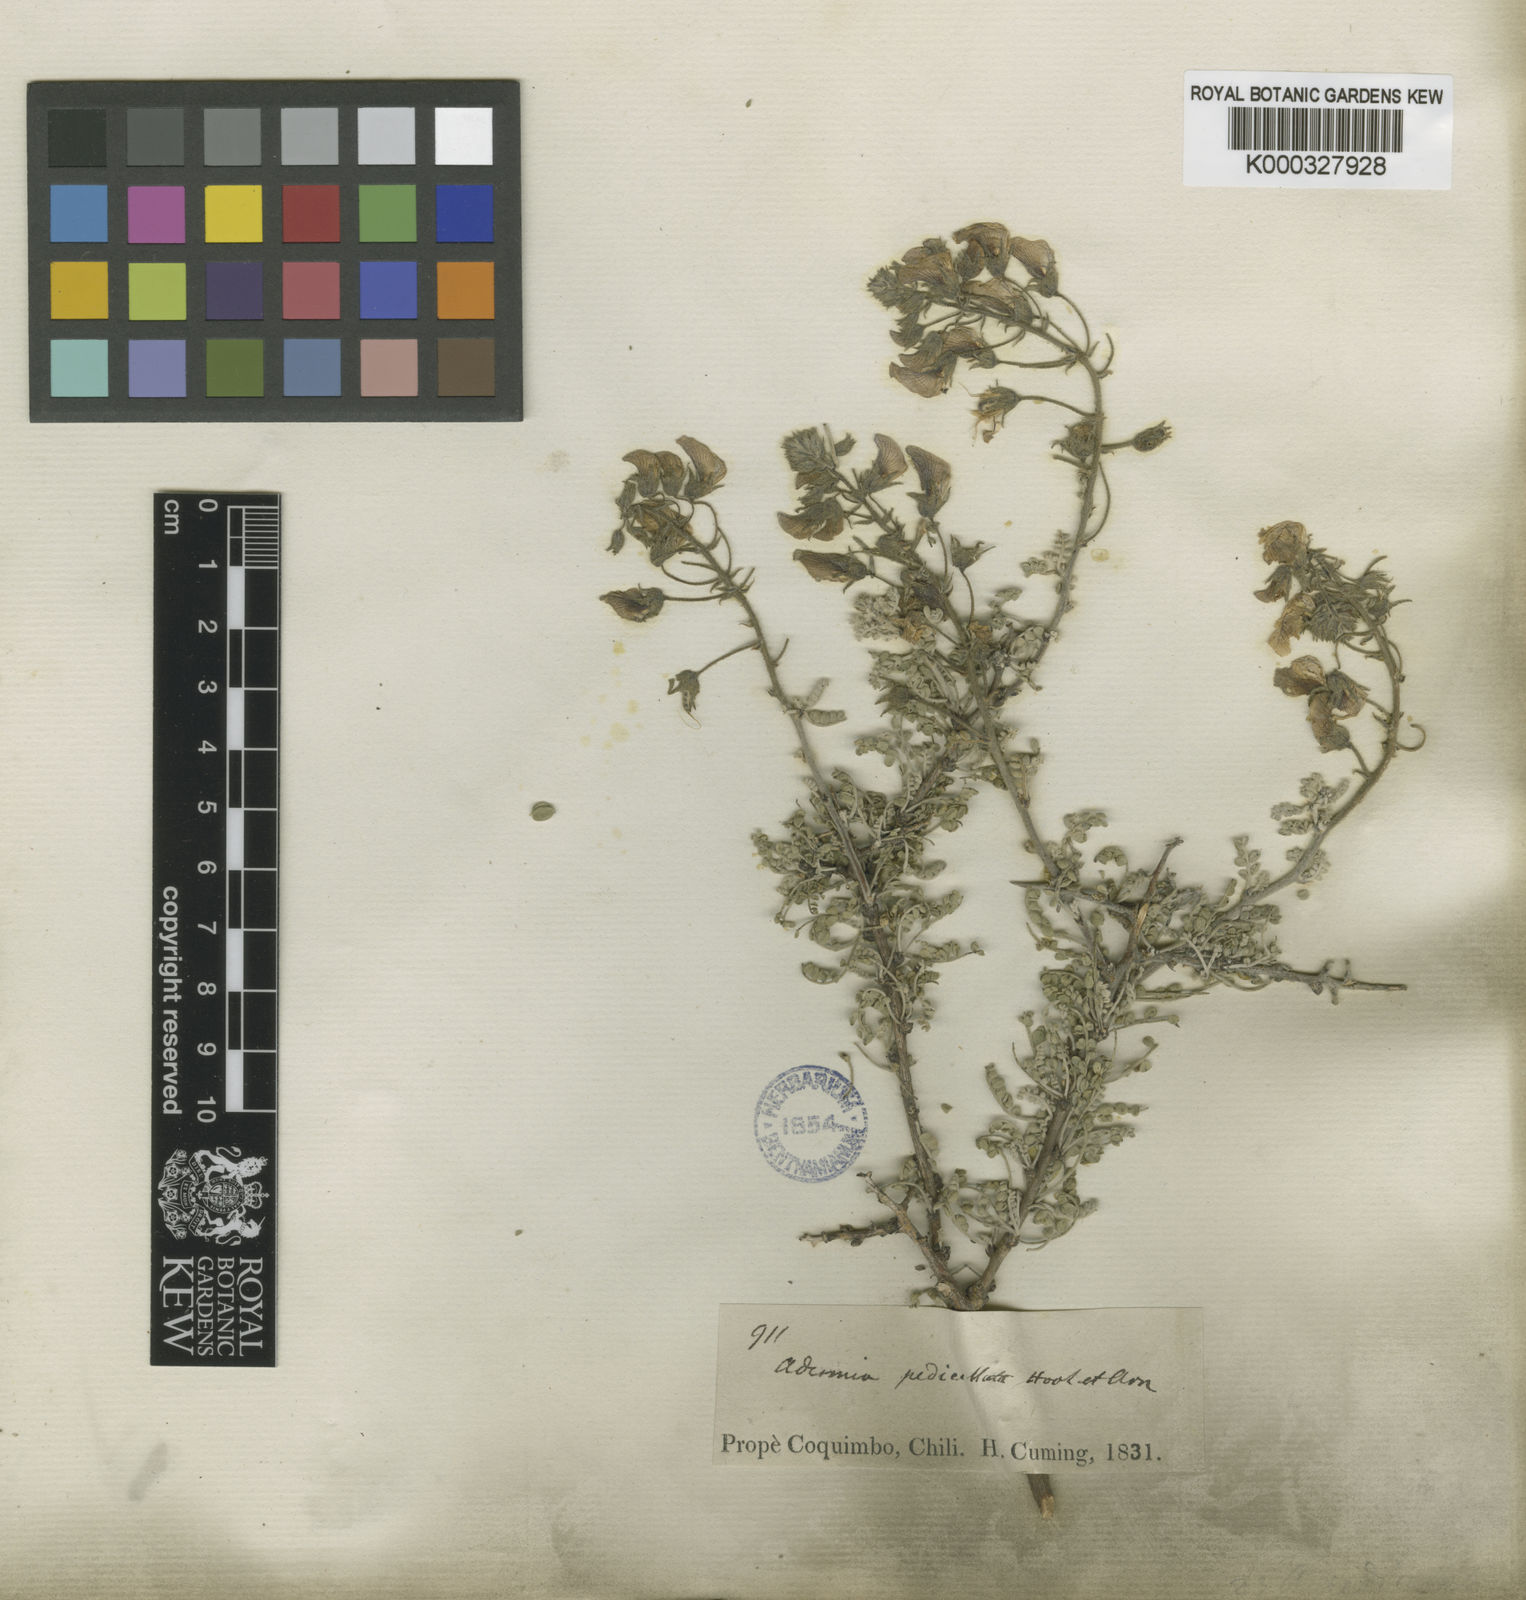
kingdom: Plantae
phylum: Tracheophyta
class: Magnoliopsida
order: Fabales
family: Fabaceae
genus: Adesmia
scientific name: Adesmia pedicellata
